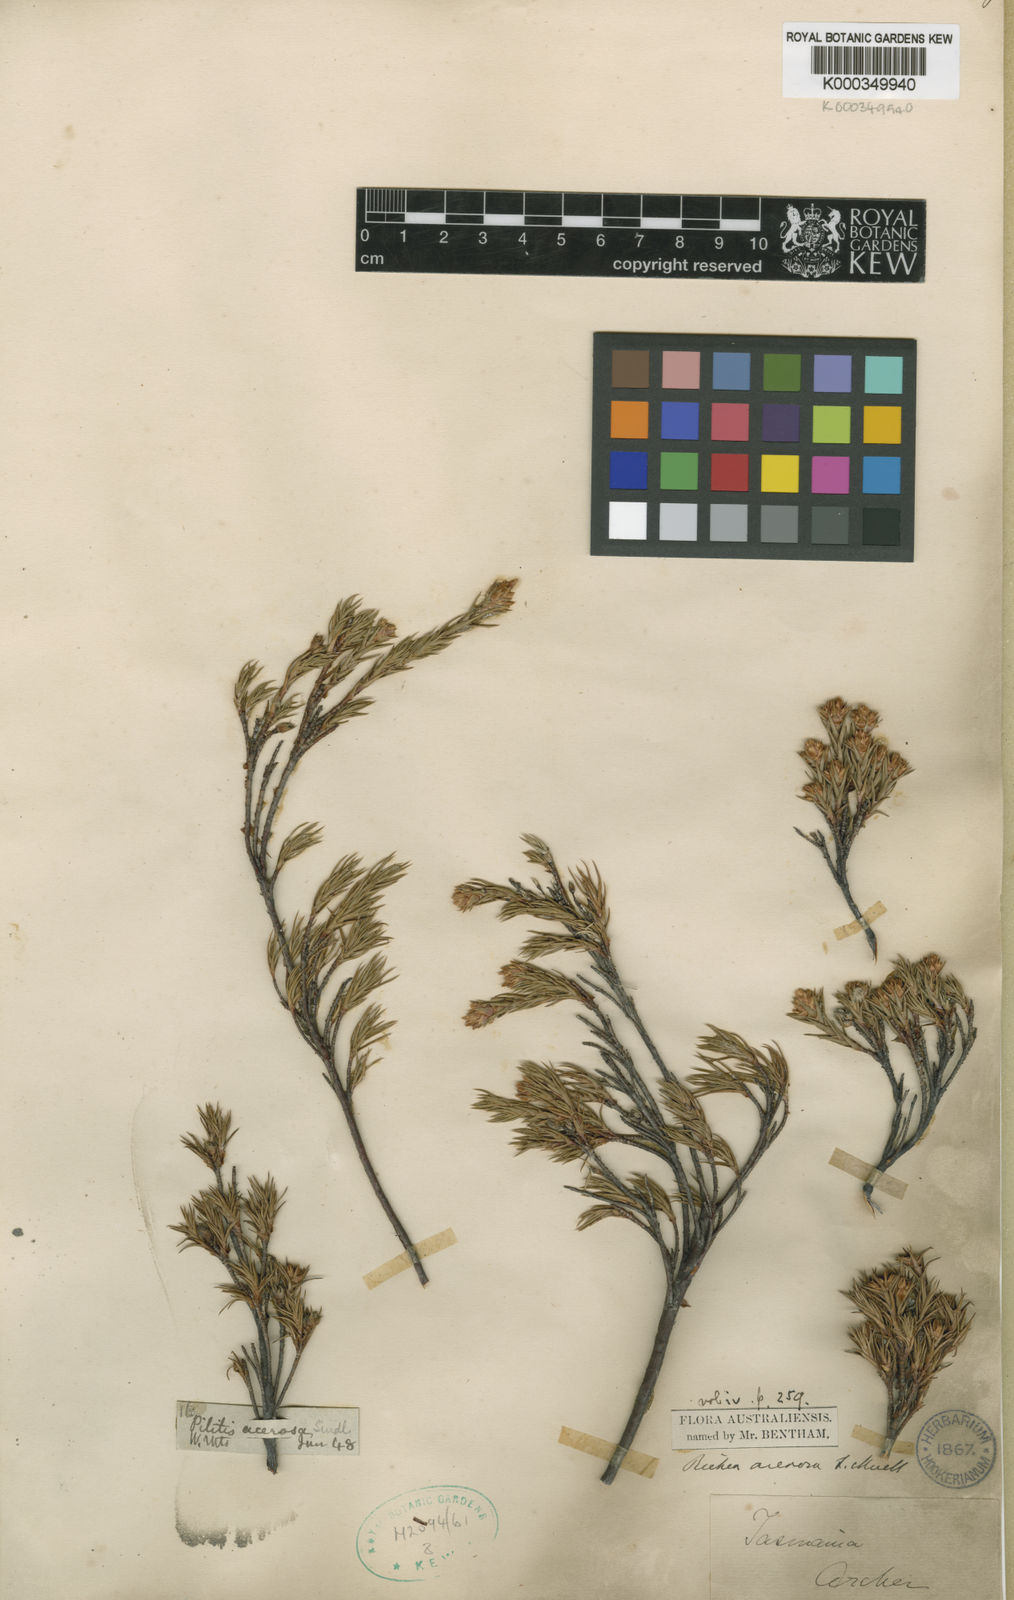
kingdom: Plantae
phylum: Tracheophyta
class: Magnoliopsida
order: Ericales
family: Ericaceae
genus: Dracophyllum
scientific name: Dracophyllum laciniatum
